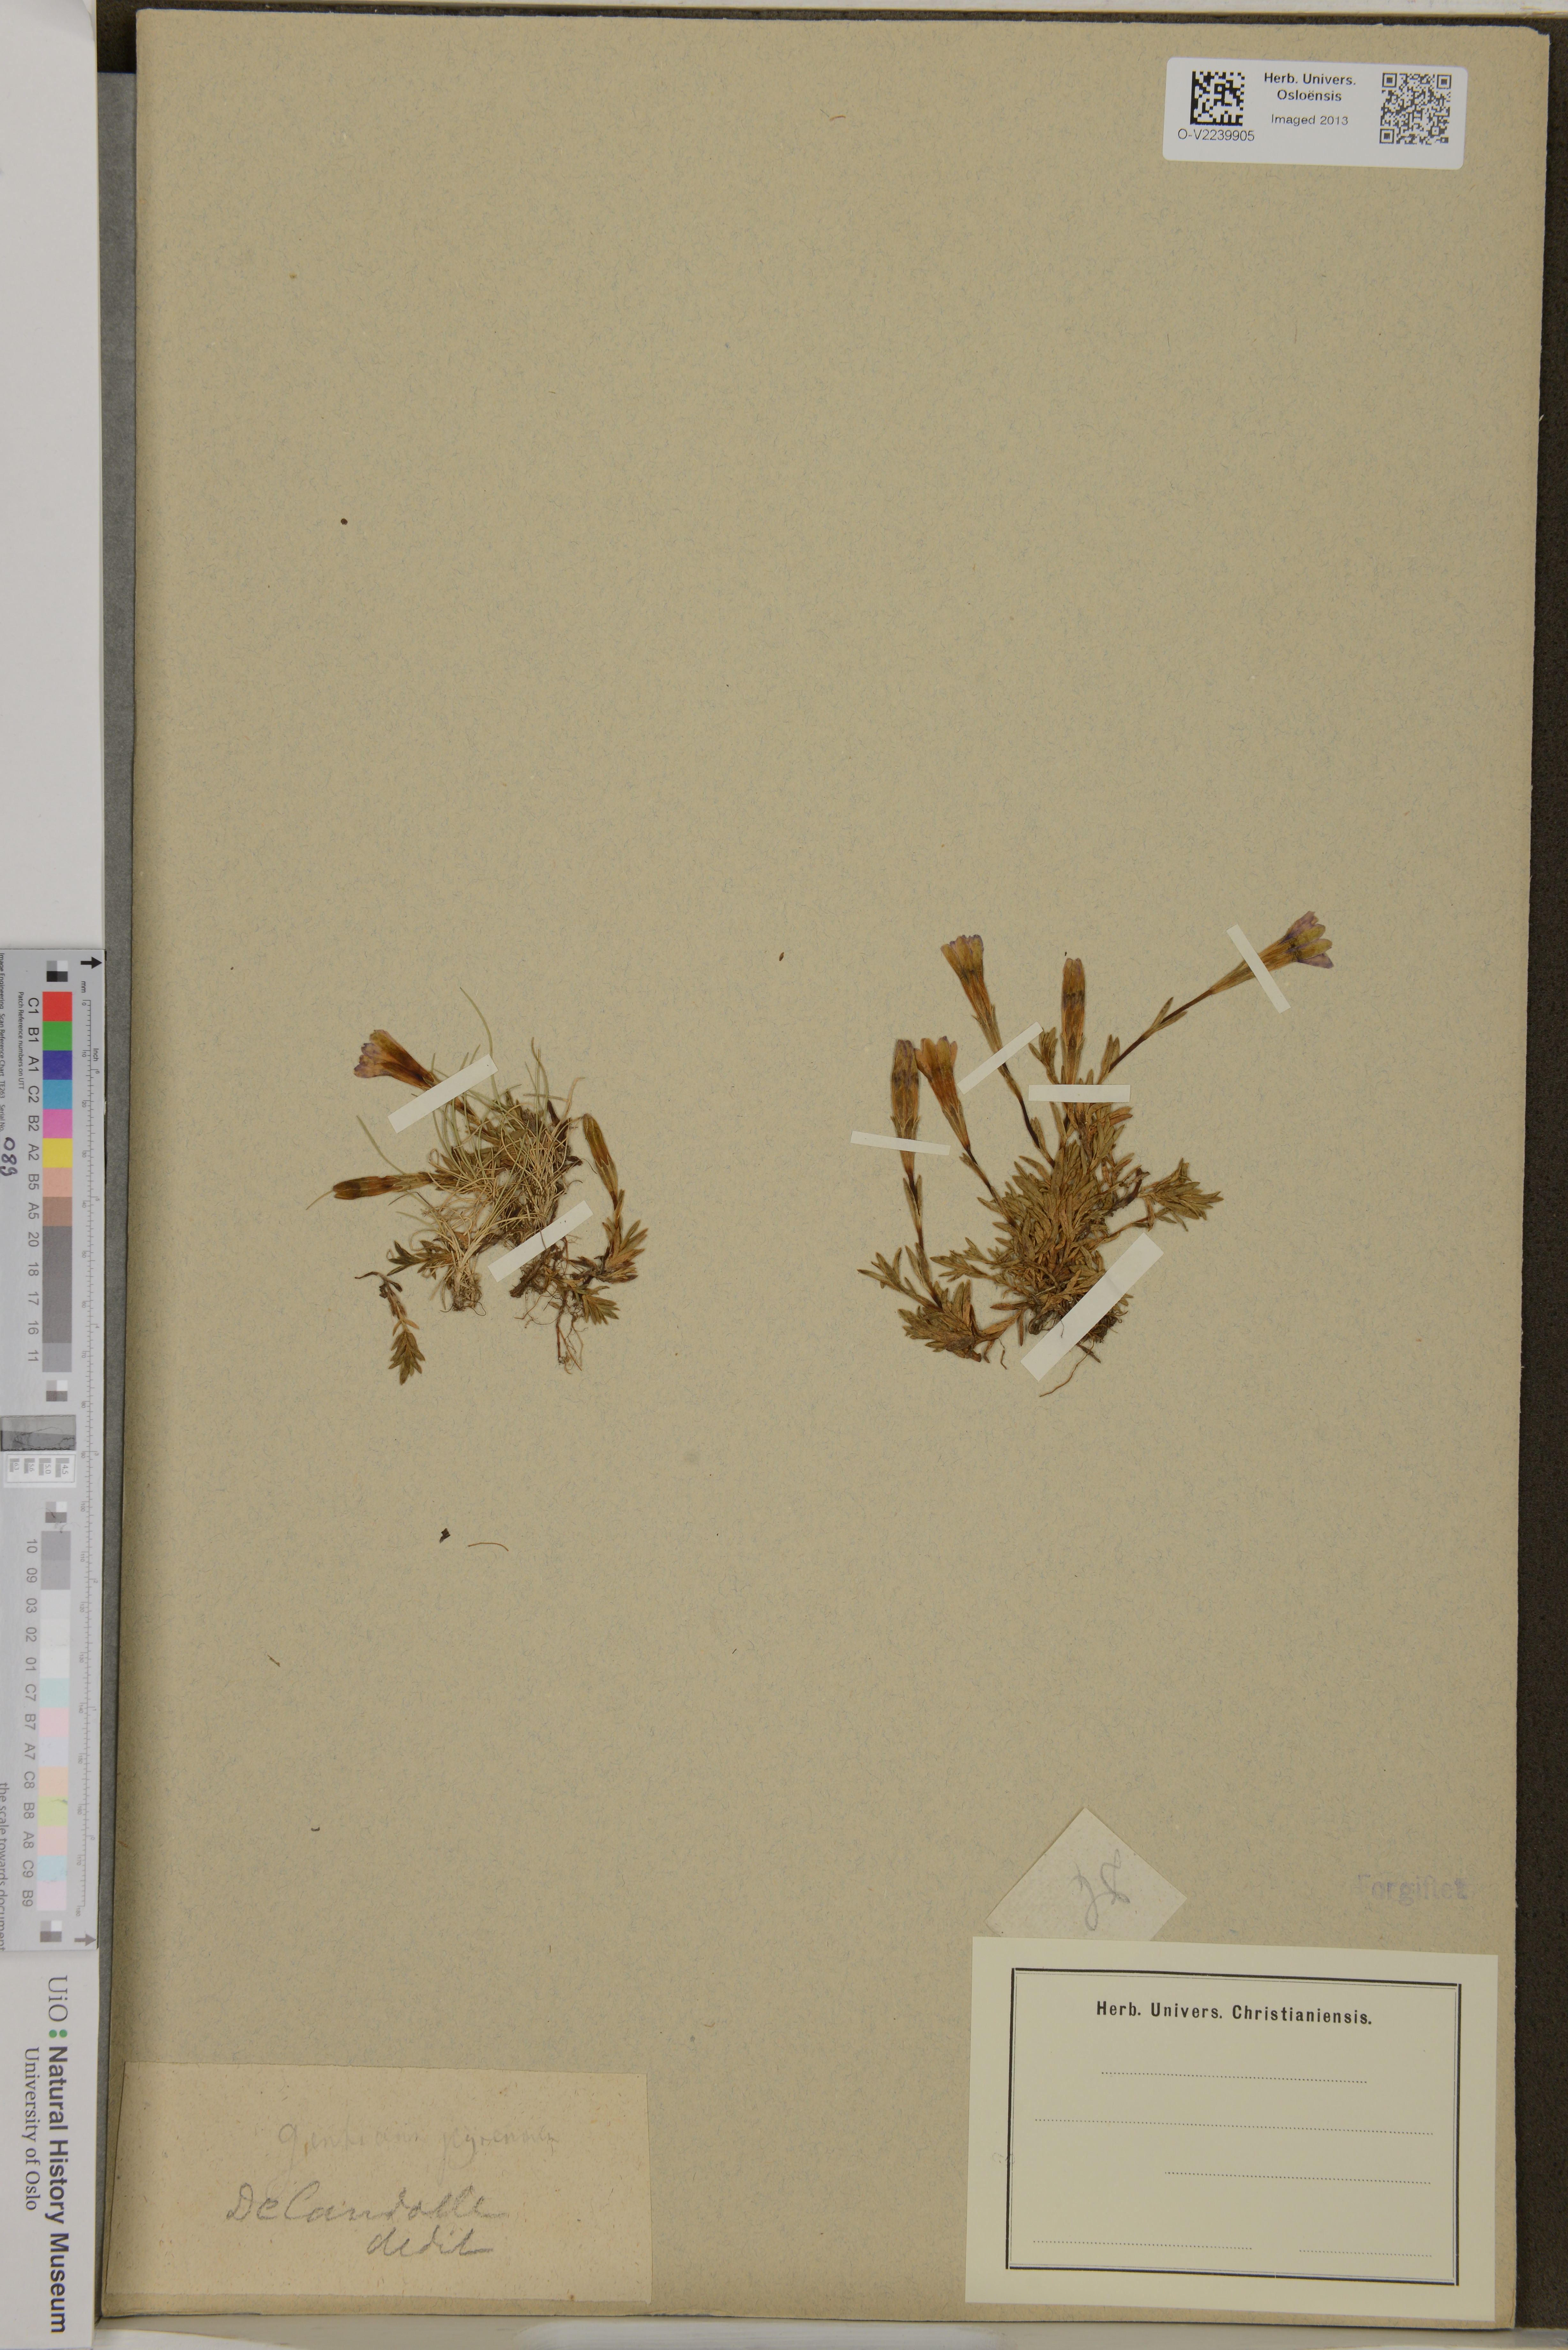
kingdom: Plantae
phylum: Tracheophyta
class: Magnoliopsida
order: Gentianales
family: Gentianaceae
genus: Gentiana
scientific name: Gentiana pyrenaica
